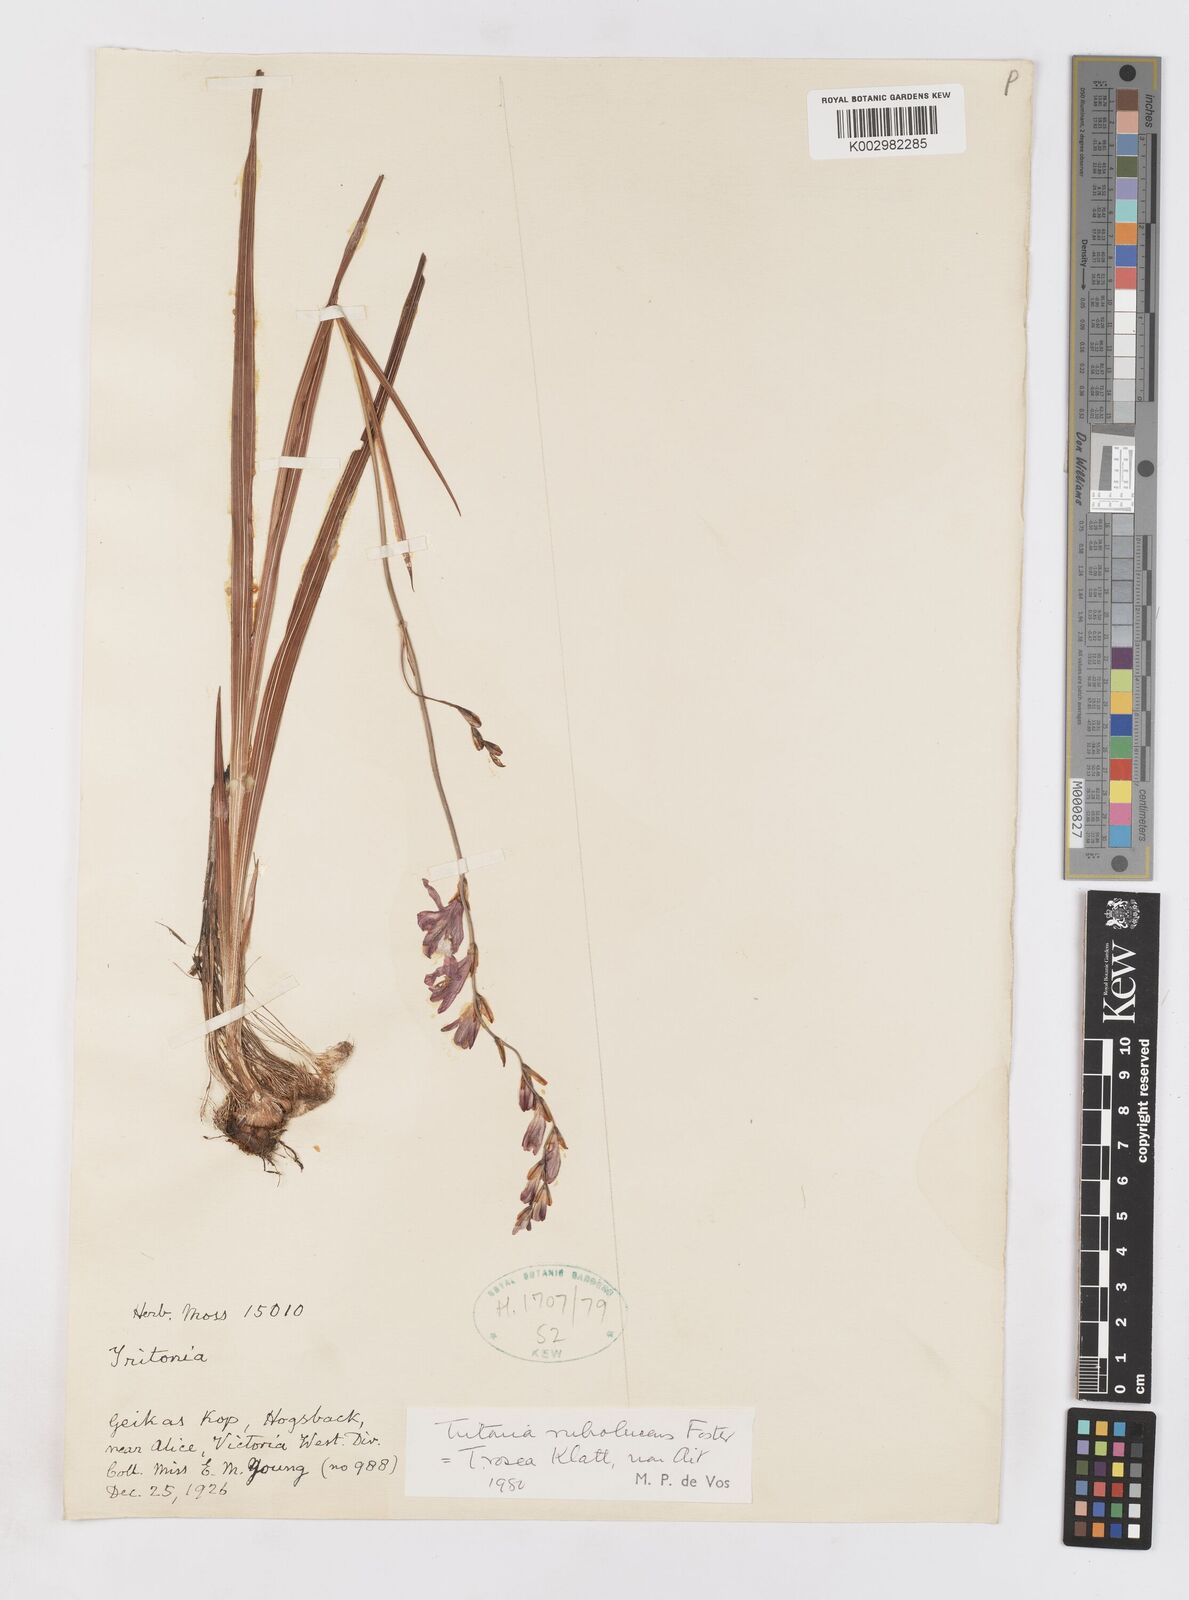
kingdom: Plantae
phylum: Tracheophyta
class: Liliopsida
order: Asparagales
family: Iridaceae
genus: Tritonia
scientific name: Tritonia disticha
